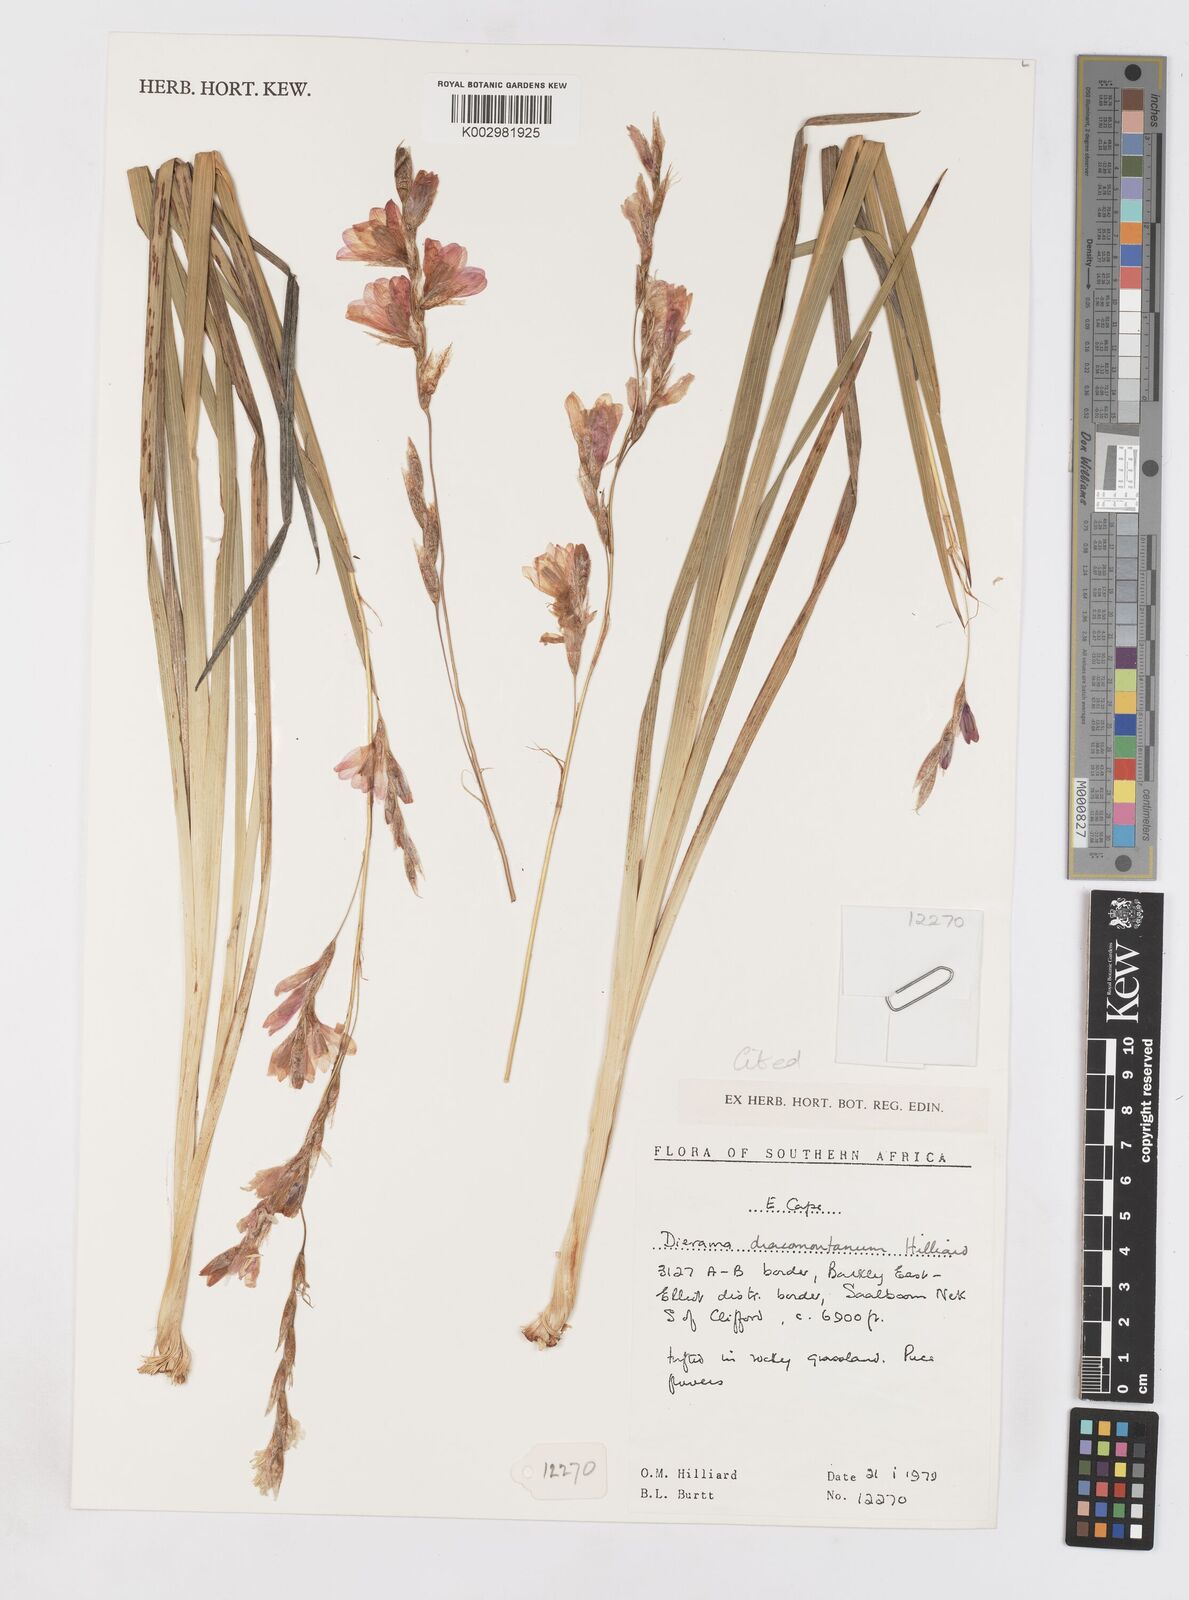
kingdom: Plantae
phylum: Tracheophyta
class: Liliopsida
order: Asparagales
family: Iridaceae
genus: Dierama
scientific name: Dierama dracomontanum
